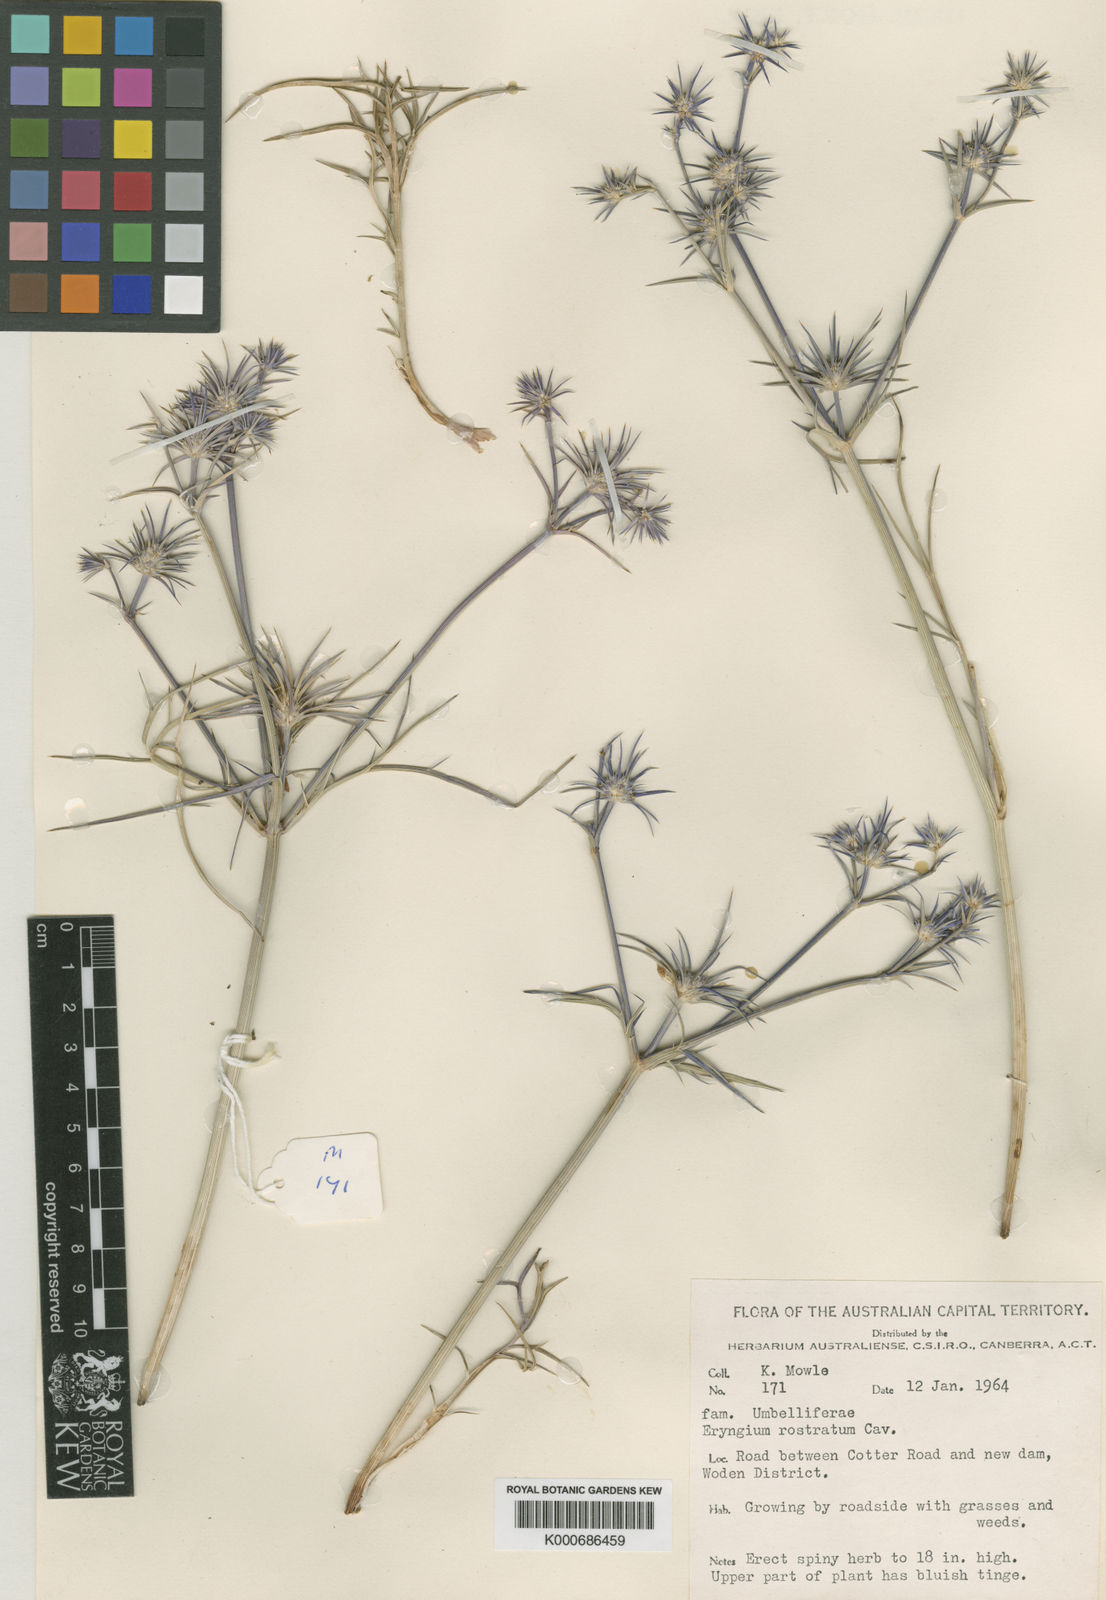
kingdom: Plantae
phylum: Tracheophyta
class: Magnoliopsida
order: Apiales
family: Apiaceae
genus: Eryngium
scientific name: Eryngium rostratum
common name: Blue eryngo
